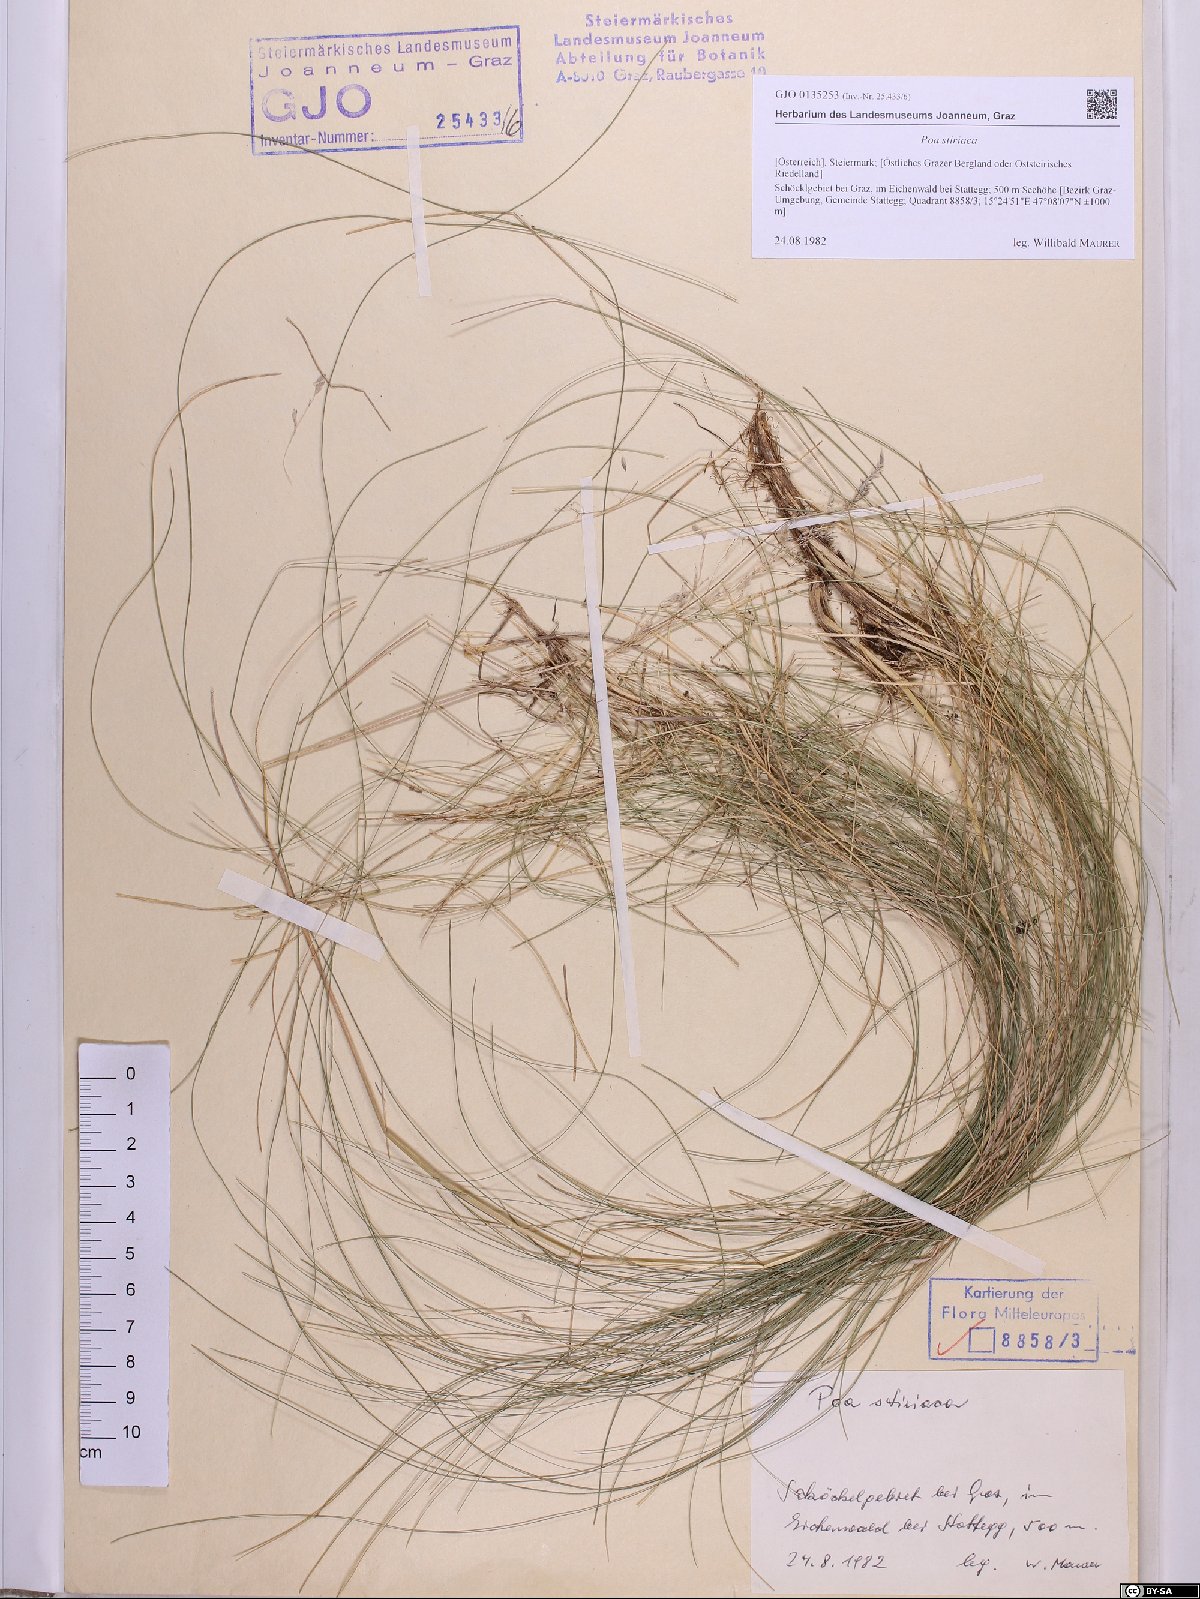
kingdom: Plantae
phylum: Tracheophyta
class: Liliopsida
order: Poales
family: Poaceae
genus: Poa
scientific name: Poa stiriaca
